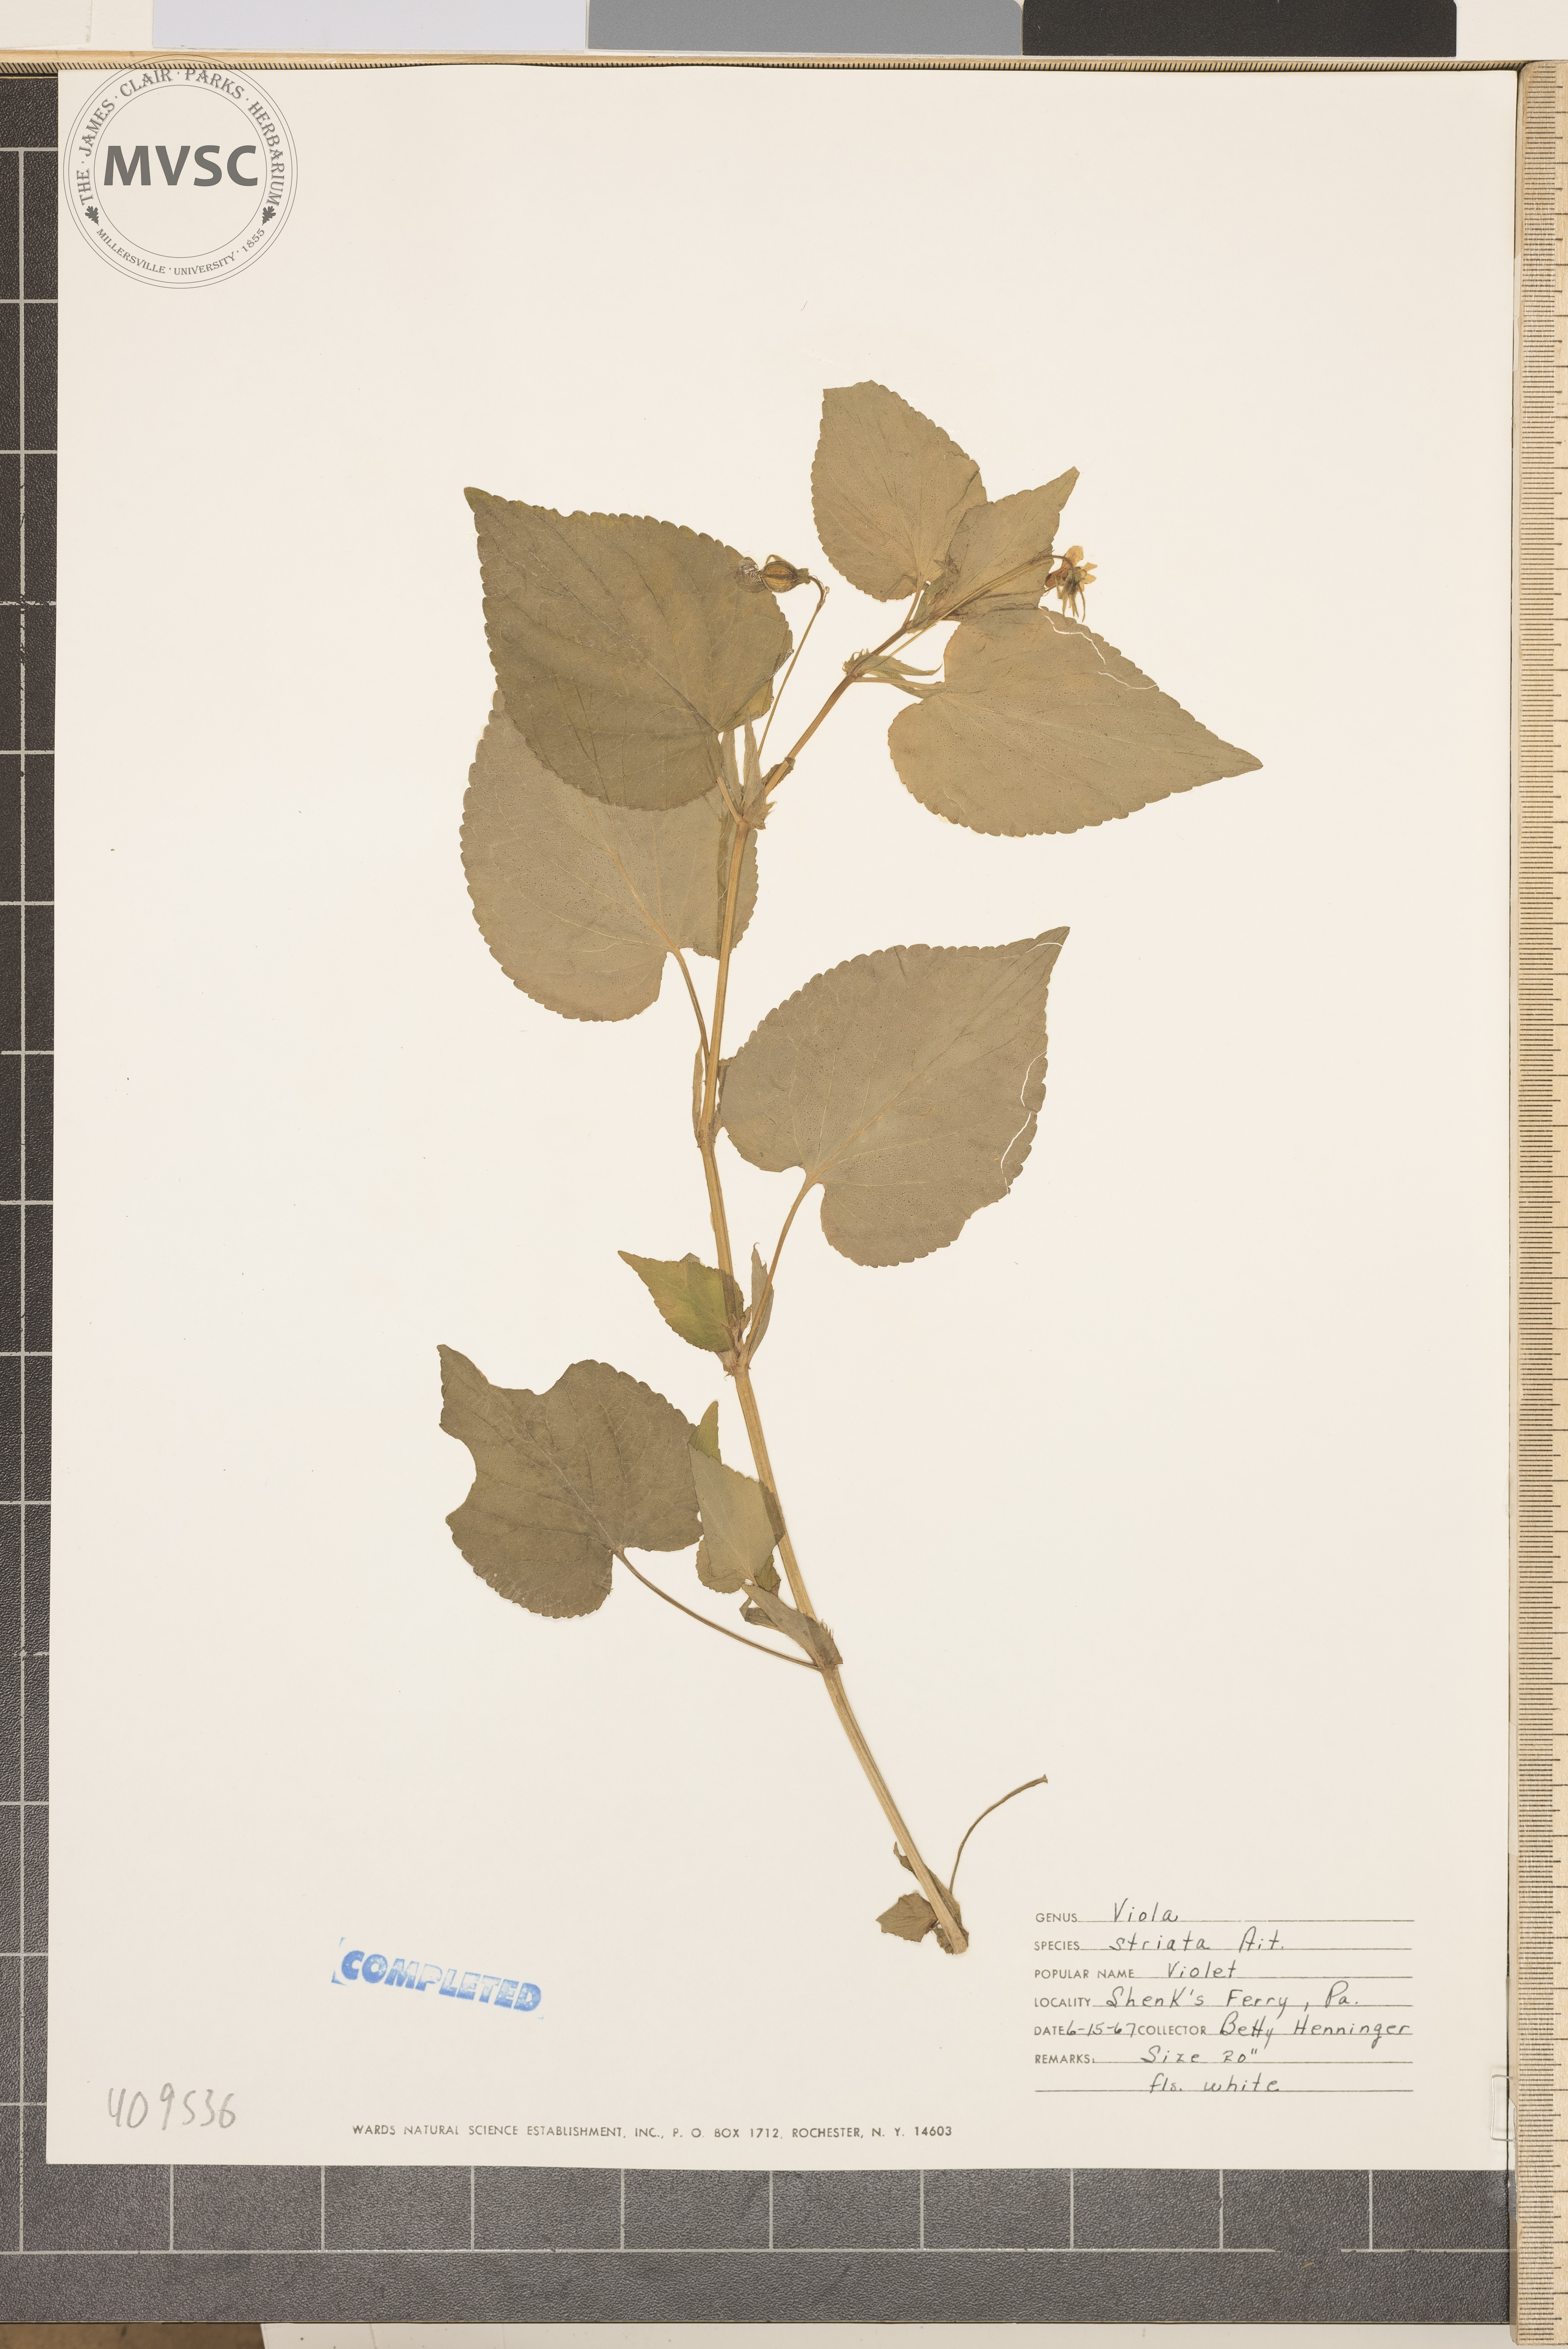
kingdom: Plantae
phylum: Tracheophyta
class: Magnoliopsida
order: Malpighiales
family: Violaceae
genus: Viola
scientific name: Viola striata
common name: striped violet
